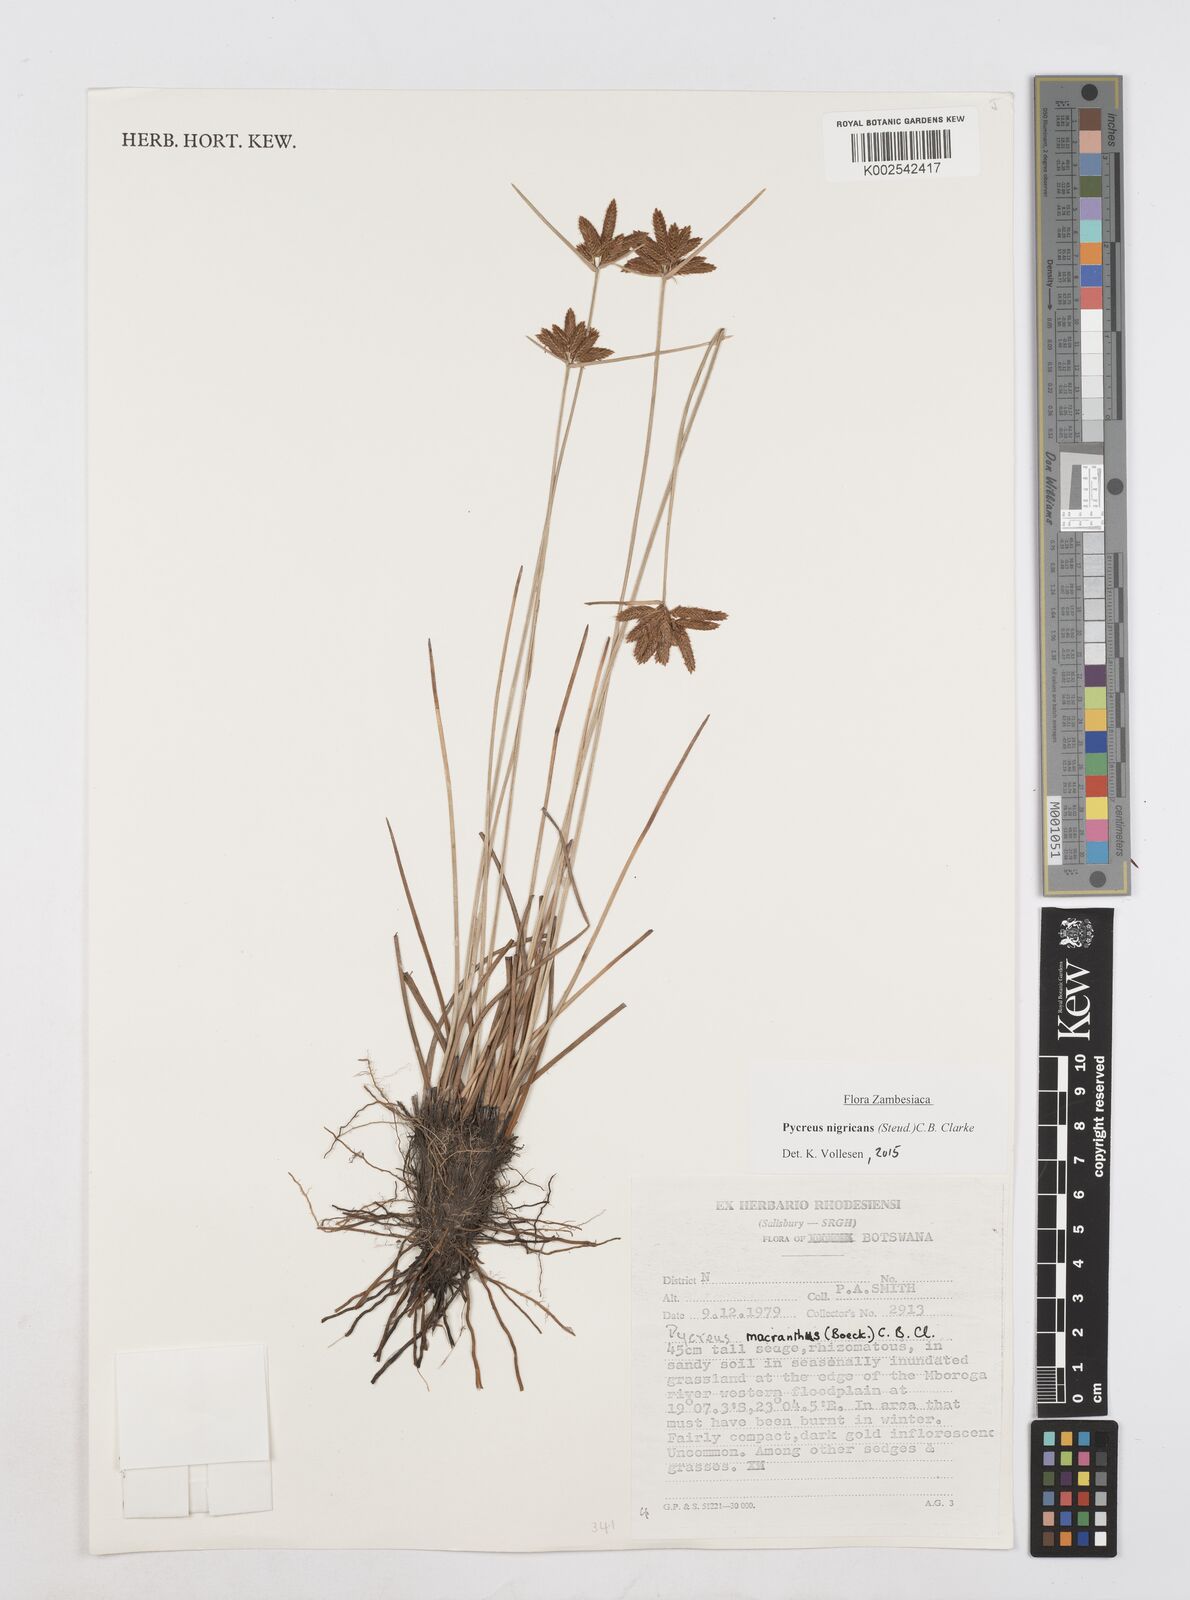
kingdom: Plantae
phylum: Tracheophyta
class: Liliopsida
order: Poales
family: Cyperaceae
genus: Cyperus
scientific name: Cyperus nigricans
